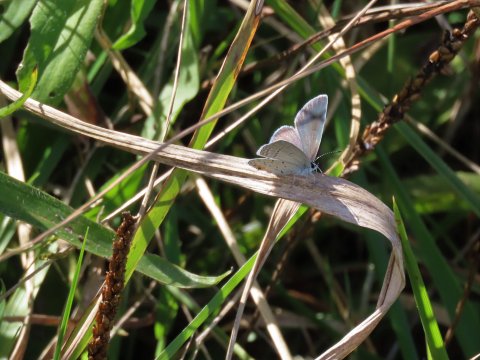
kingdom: Animalia
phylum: Arthropoda
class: Insecta
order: Lepidoptera
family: Lycaenidae
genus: Elkalyce
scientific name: Elkalyce comyntas
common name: Eastern Tailed-Blue
